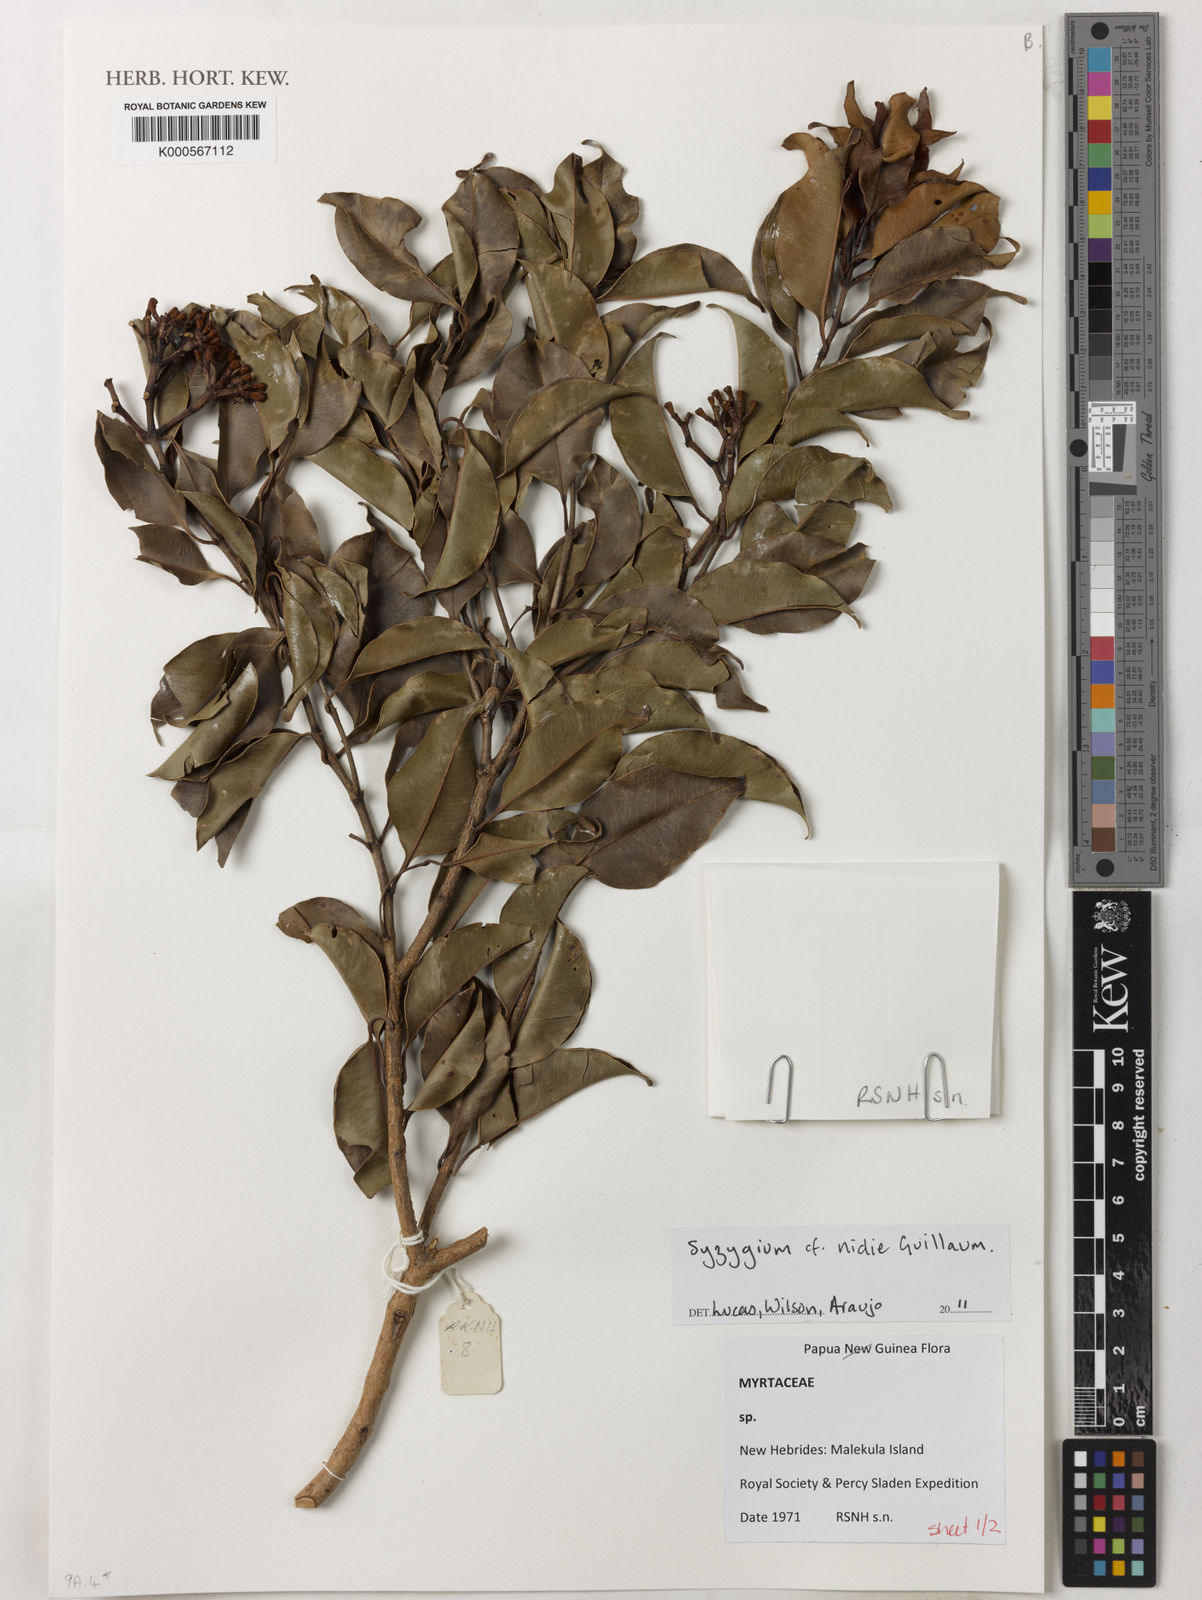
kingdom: Plantae
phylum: Tracheophyta
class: Magnoliopsida
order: Myrtales
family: Myrtaceae
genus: Syzygium
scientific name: Syzygium nidie
